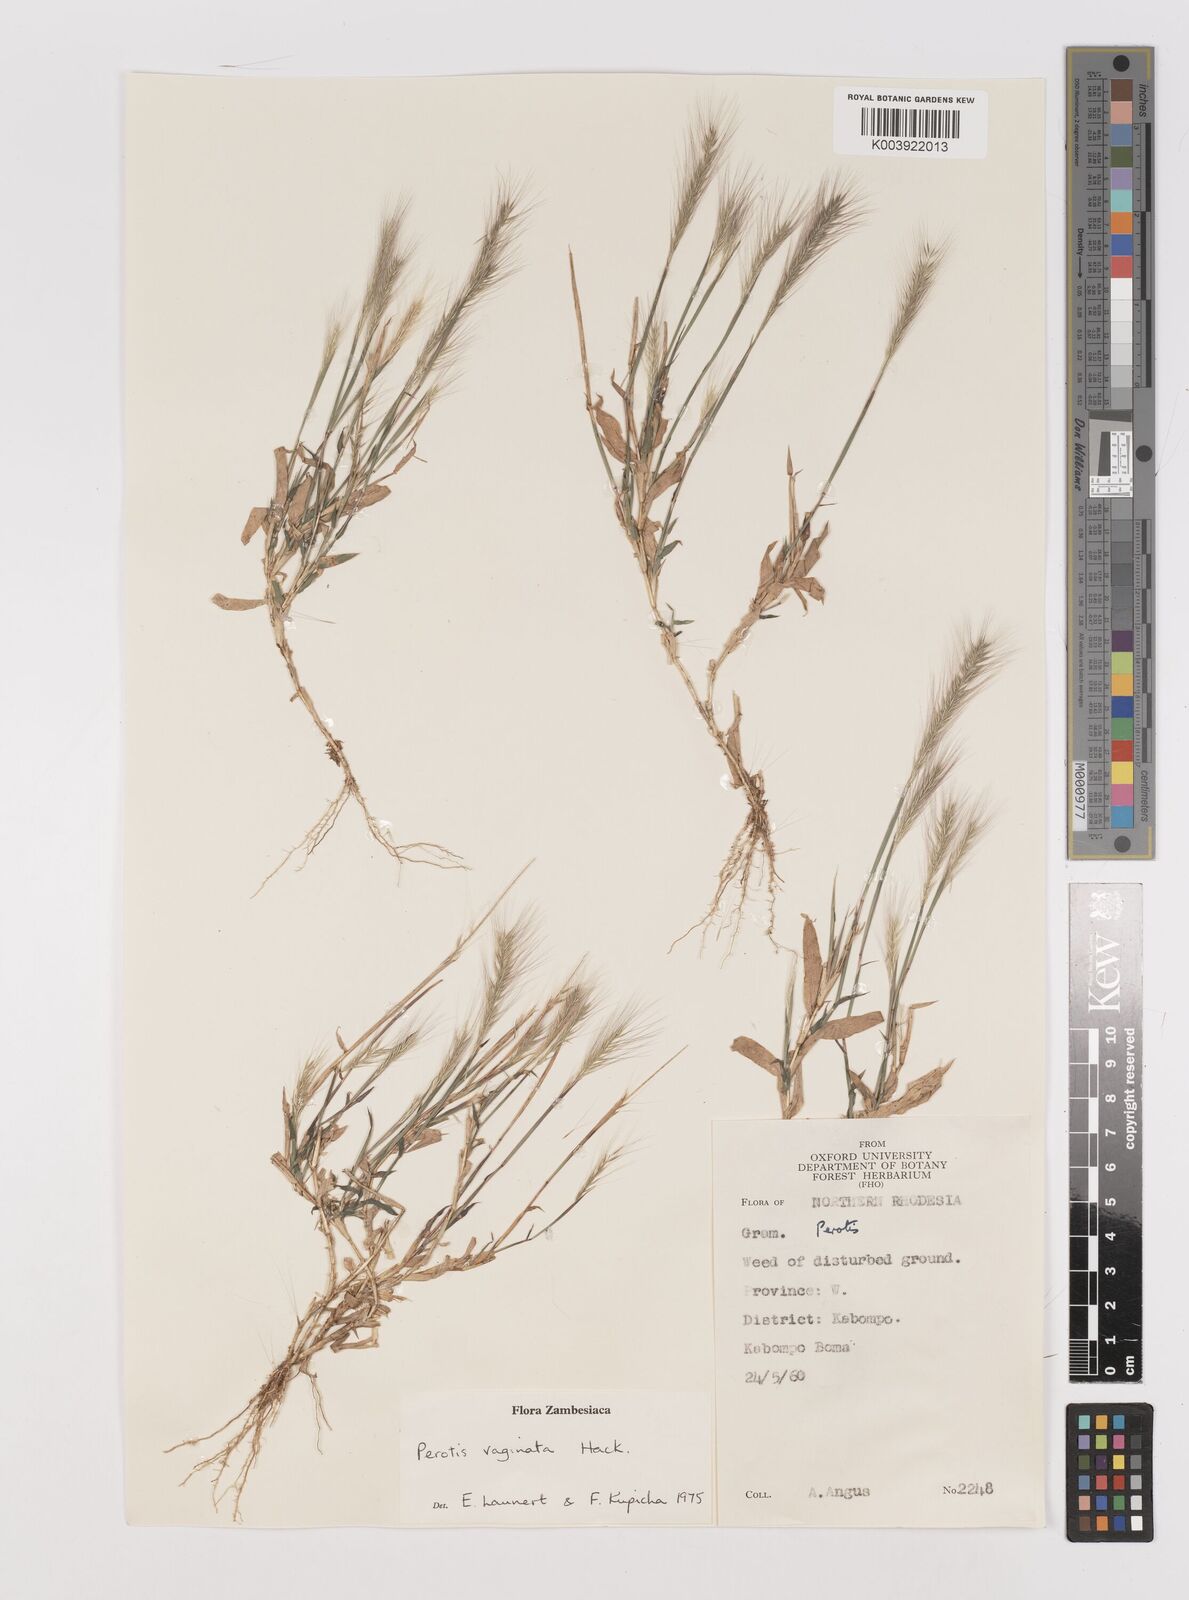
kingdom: Plantae
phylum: Tracheophyta
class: Liliopsida
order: Poales
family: Poaceae
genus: Perotis
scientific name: Perotis vaginata
